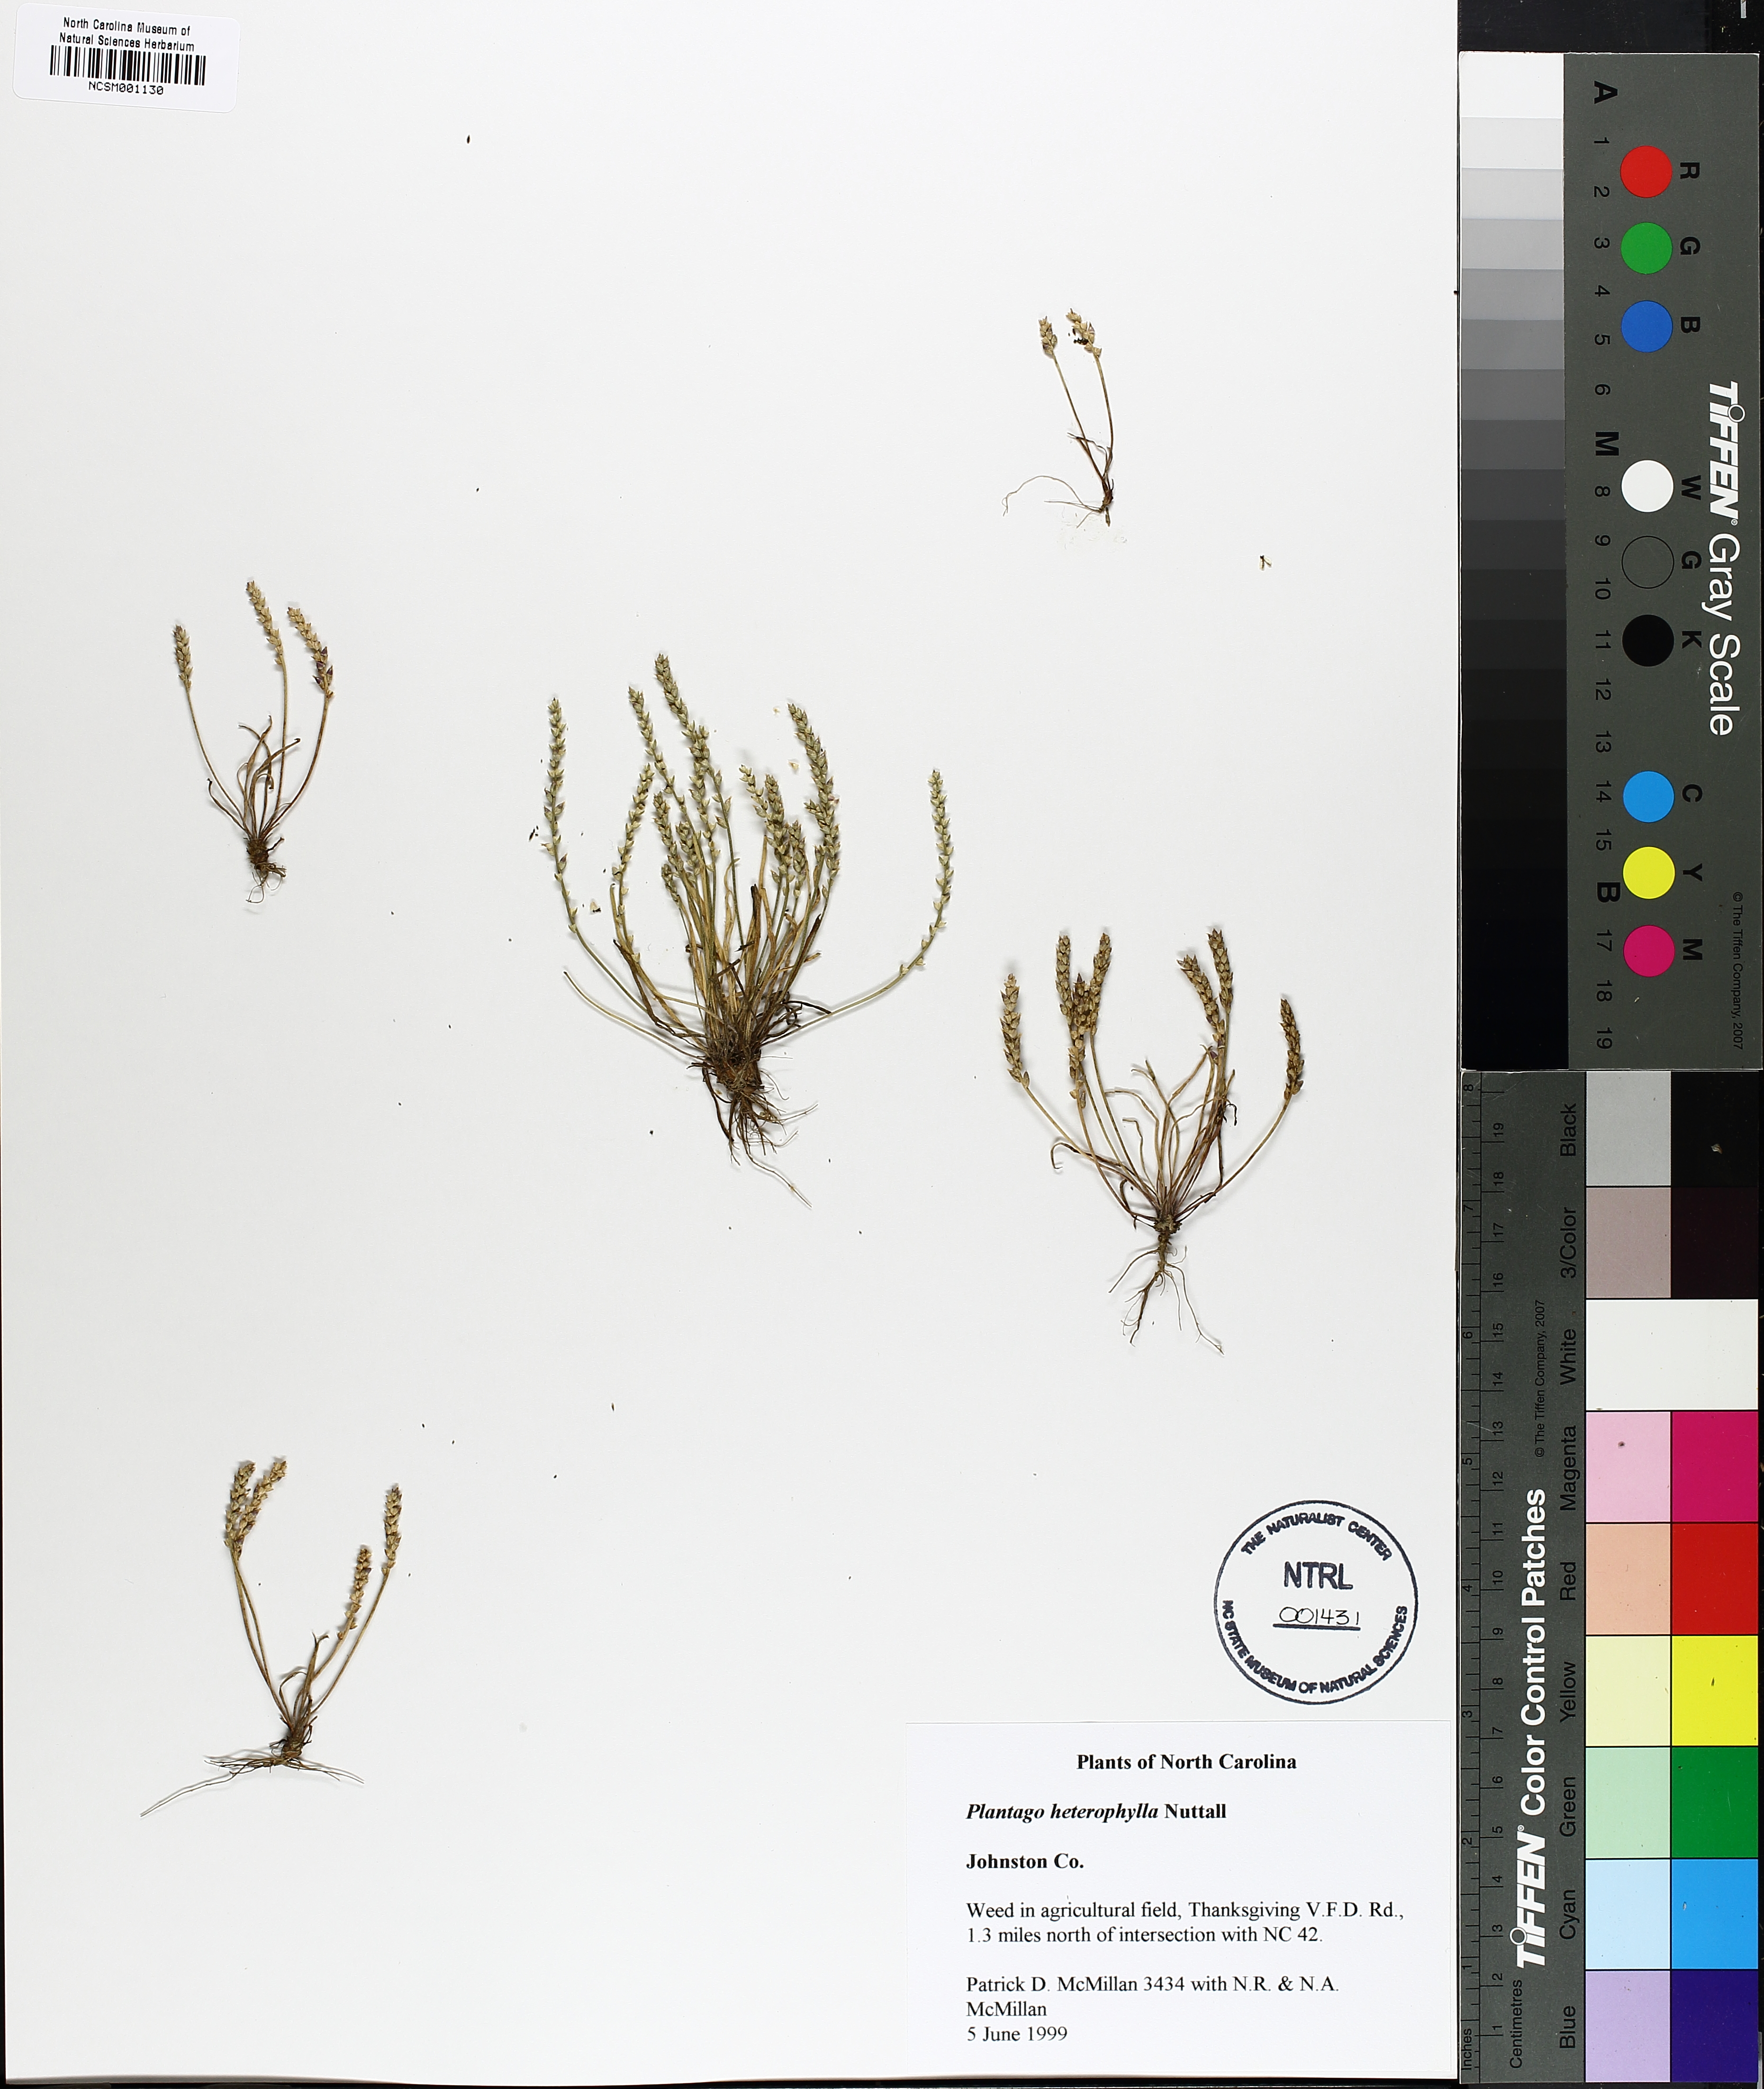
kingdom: Plantae
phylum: Tracheophyta
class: Magnoliopsida
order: Lamiales
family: Plantaginaceae
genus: Plantago
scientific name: Plantago heterophylla
